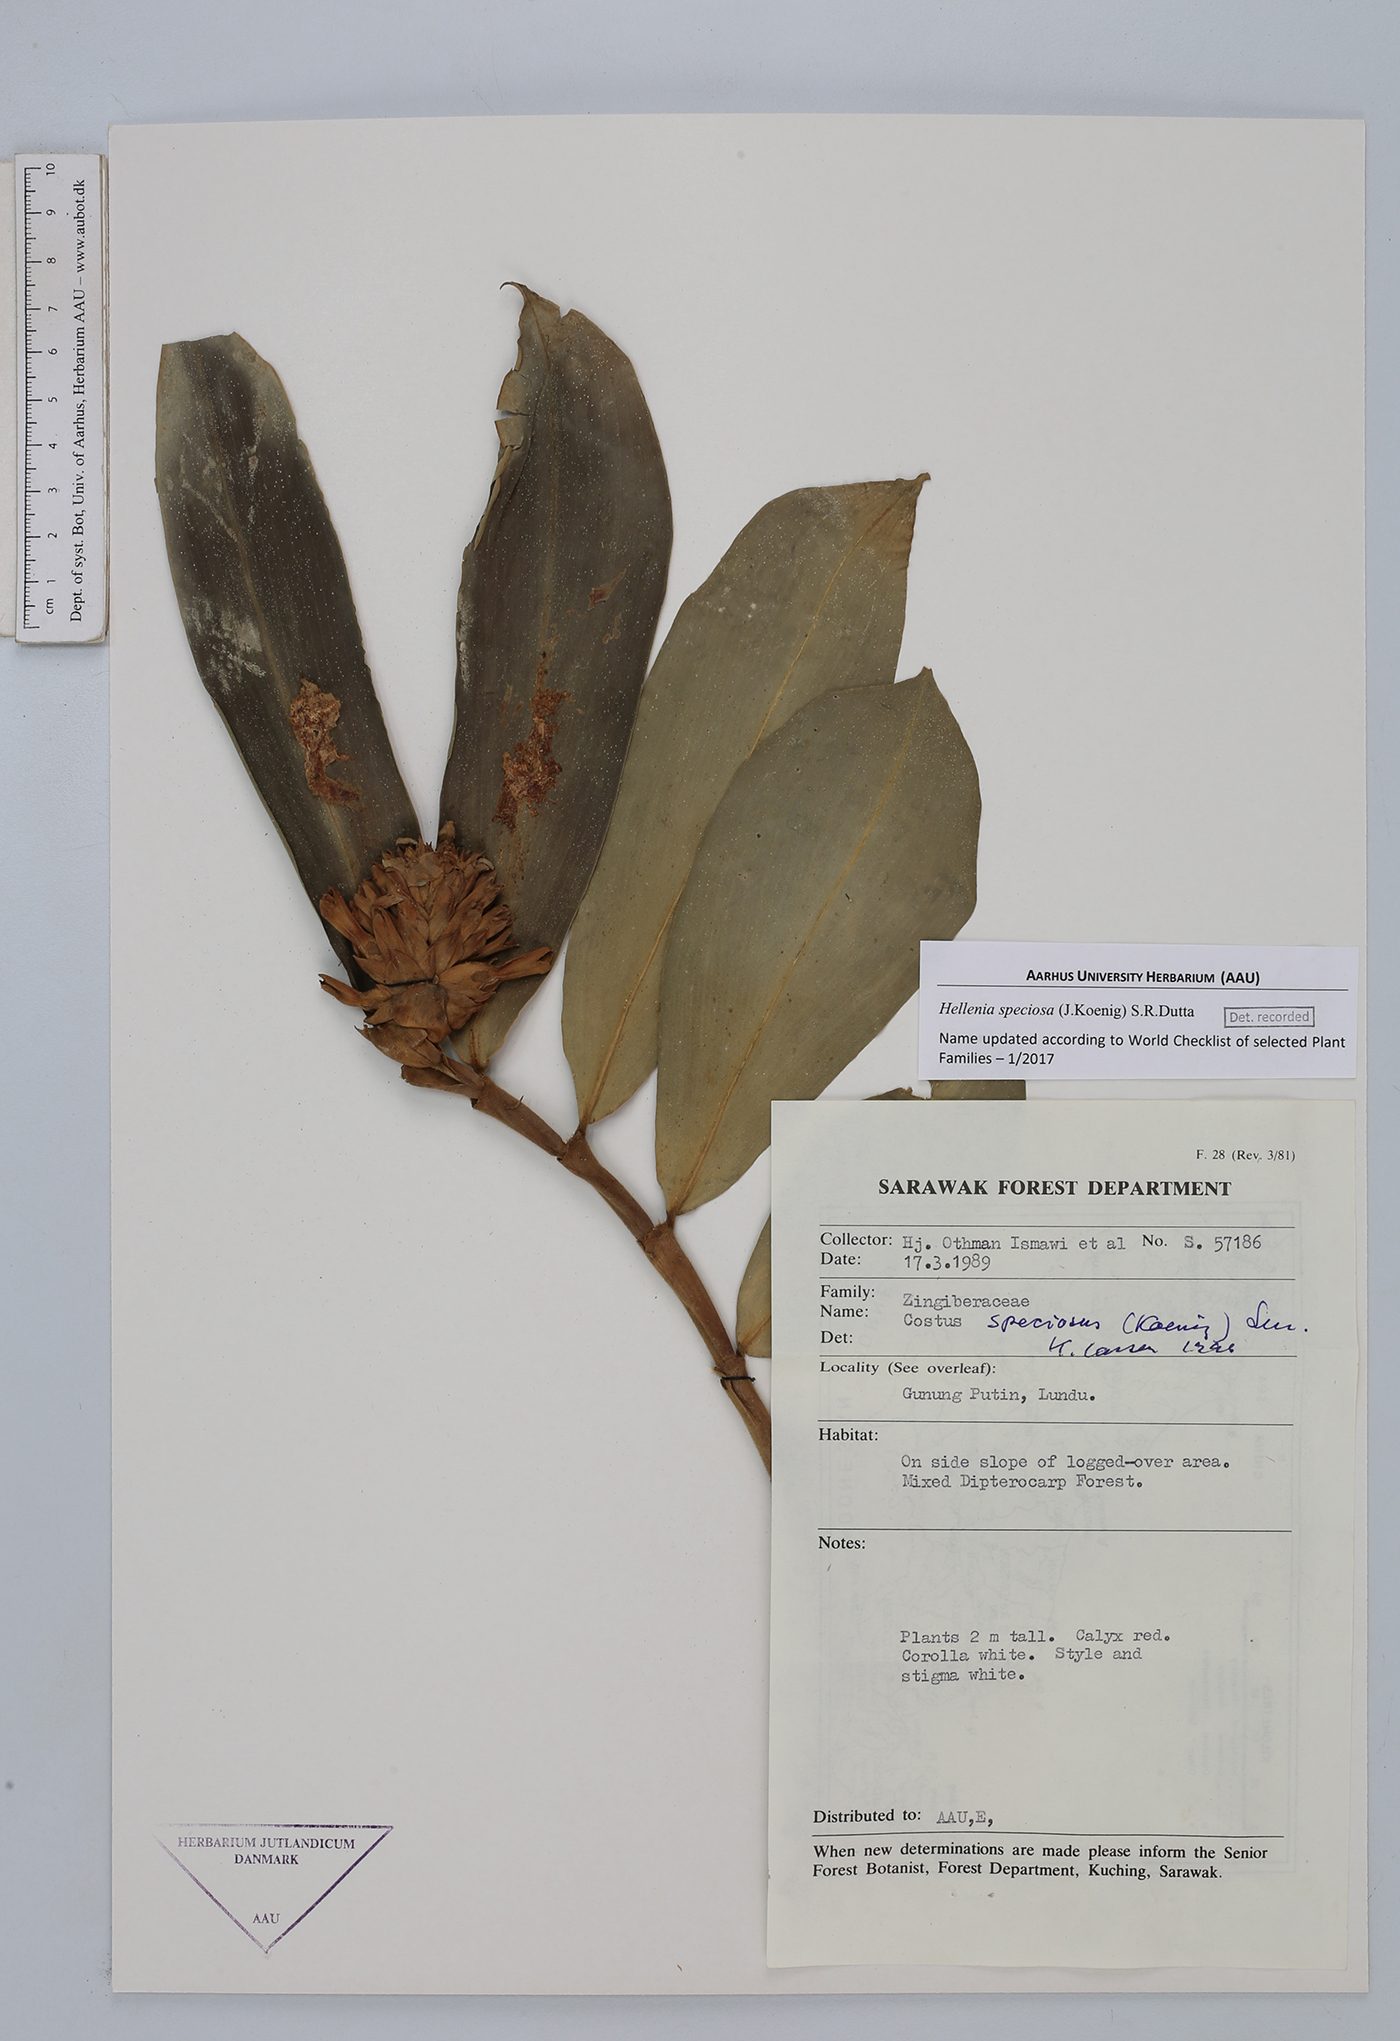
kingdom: Plantae
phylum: Tracheophyta
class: Liliopsida
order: Zingiberales
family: Costaceae
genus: Hellenia
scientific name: Hellenia speciosa
